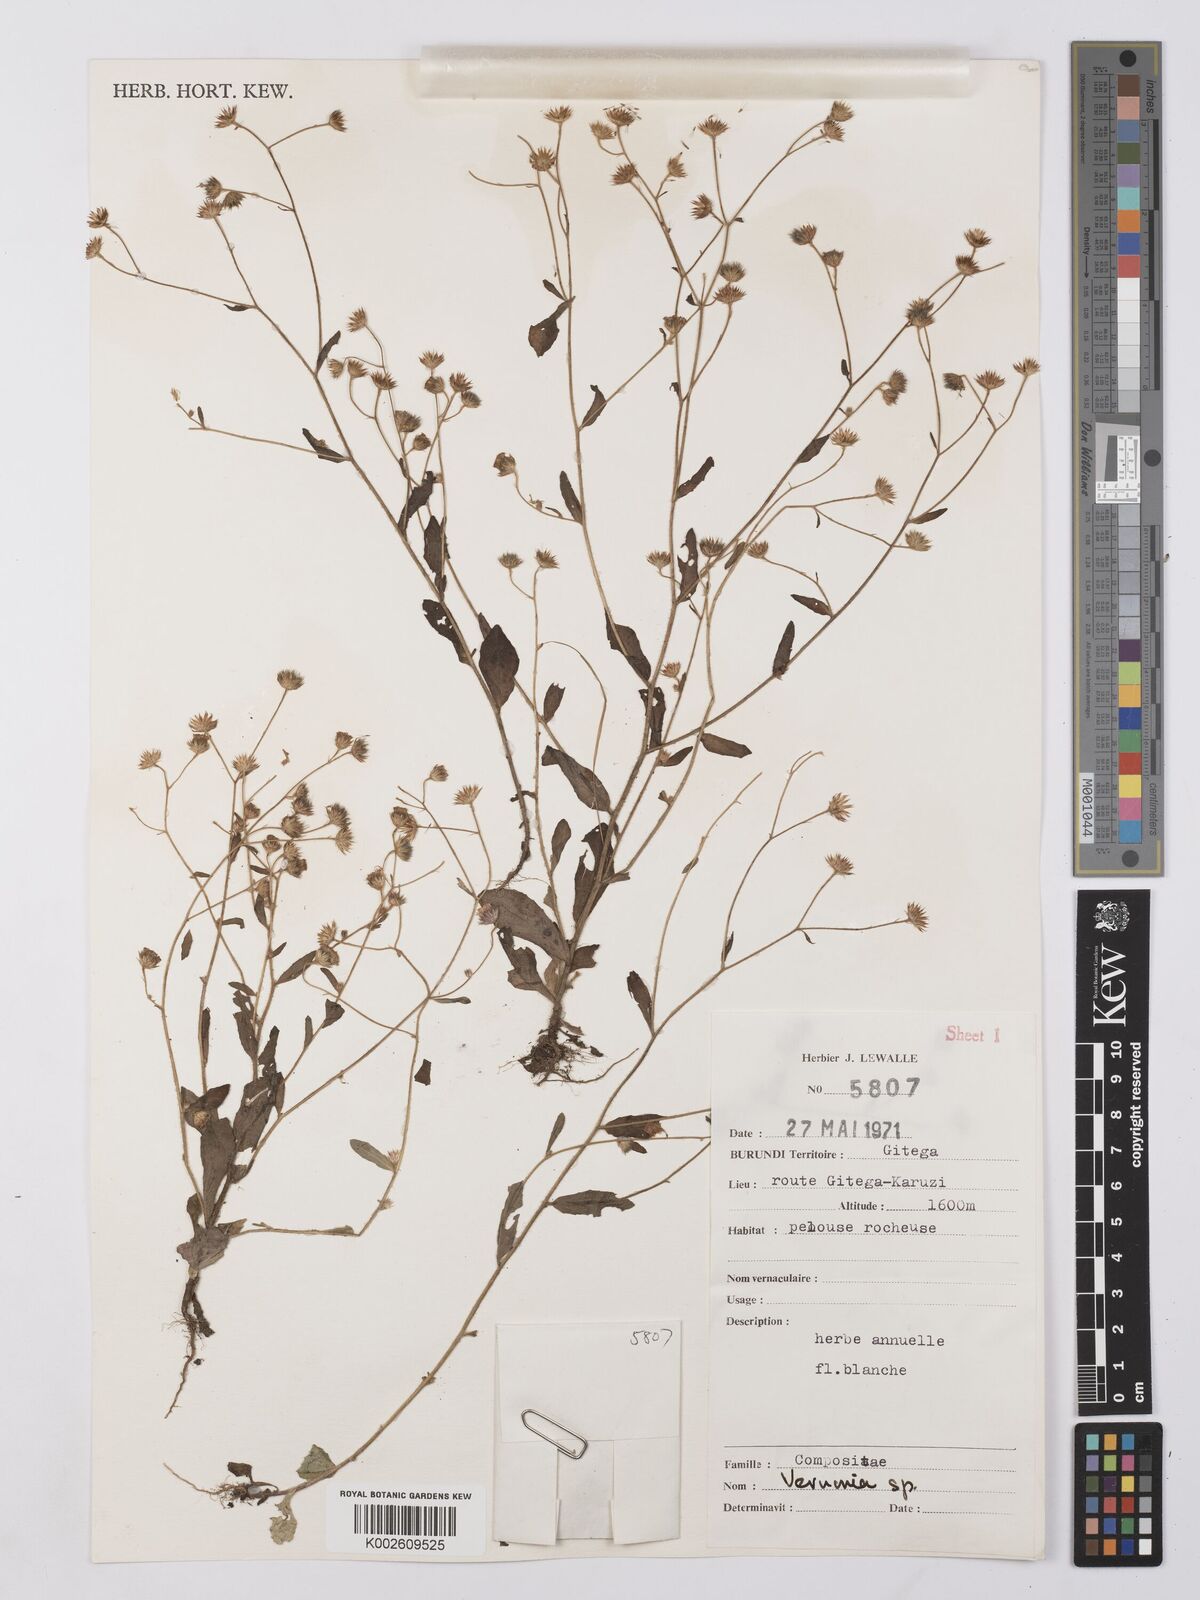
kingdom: Plantae
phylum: Tracheophyta
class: Magnoliopsida
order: Asterales
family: Asteraceae
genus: Vernonia
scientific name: Vernonia
